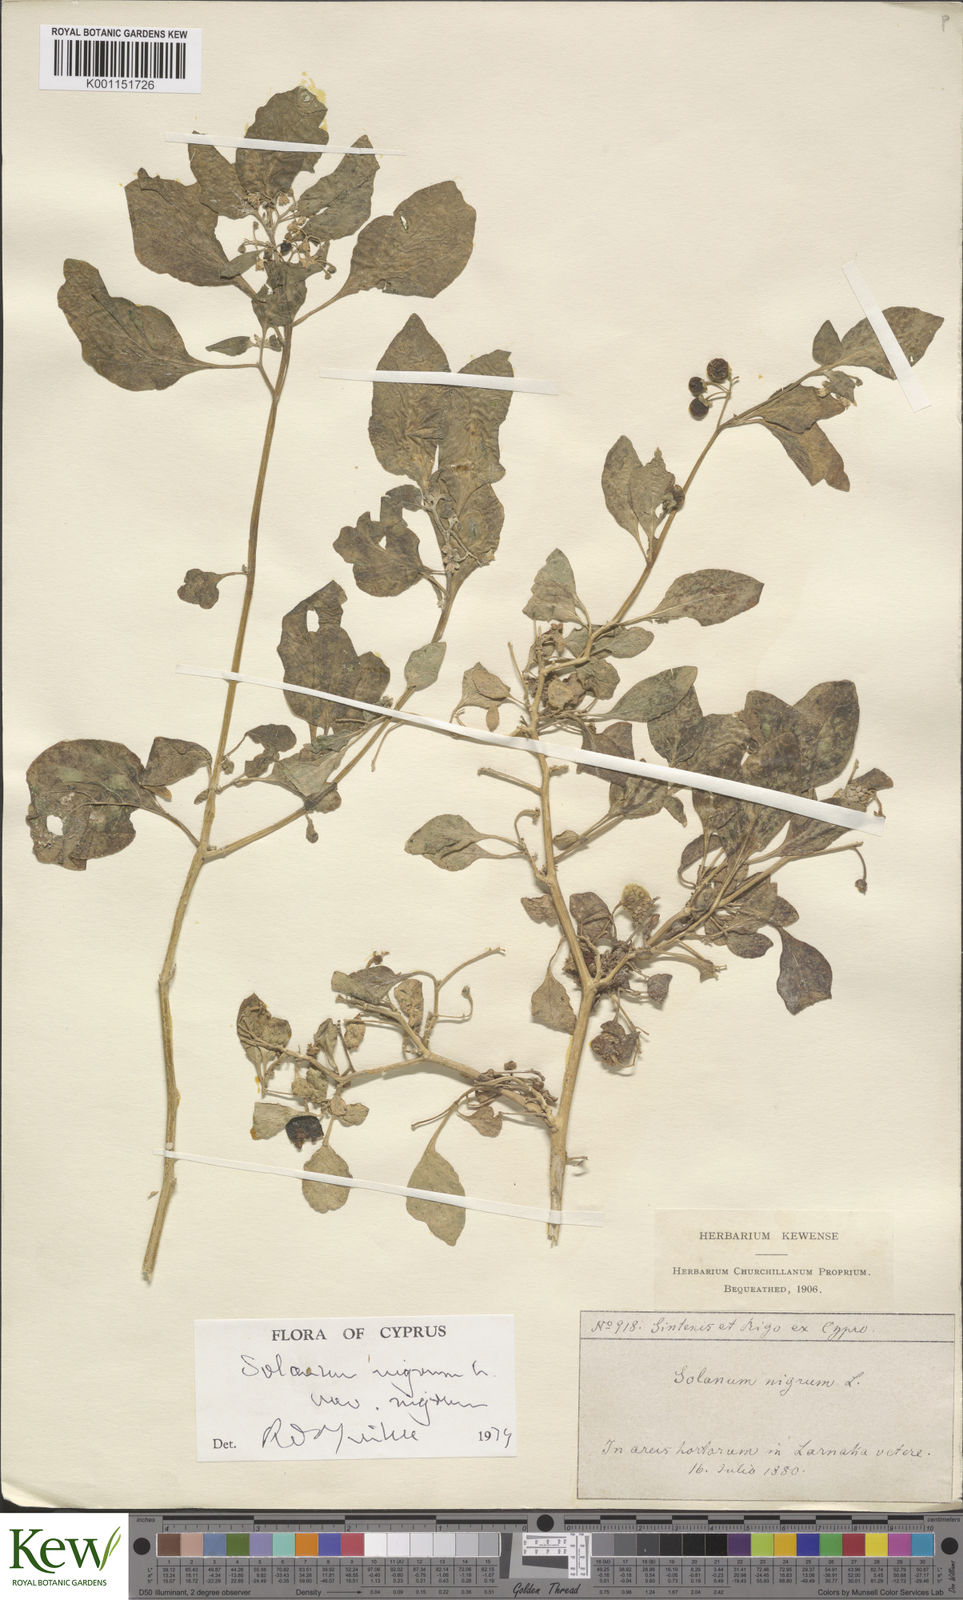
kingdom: Plantae
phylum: Tracheophyta
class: Magnoliopsida
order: Solanales
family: Solanaceae
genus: Solanum
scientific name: Solanum nigrum
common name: Black nightshade
